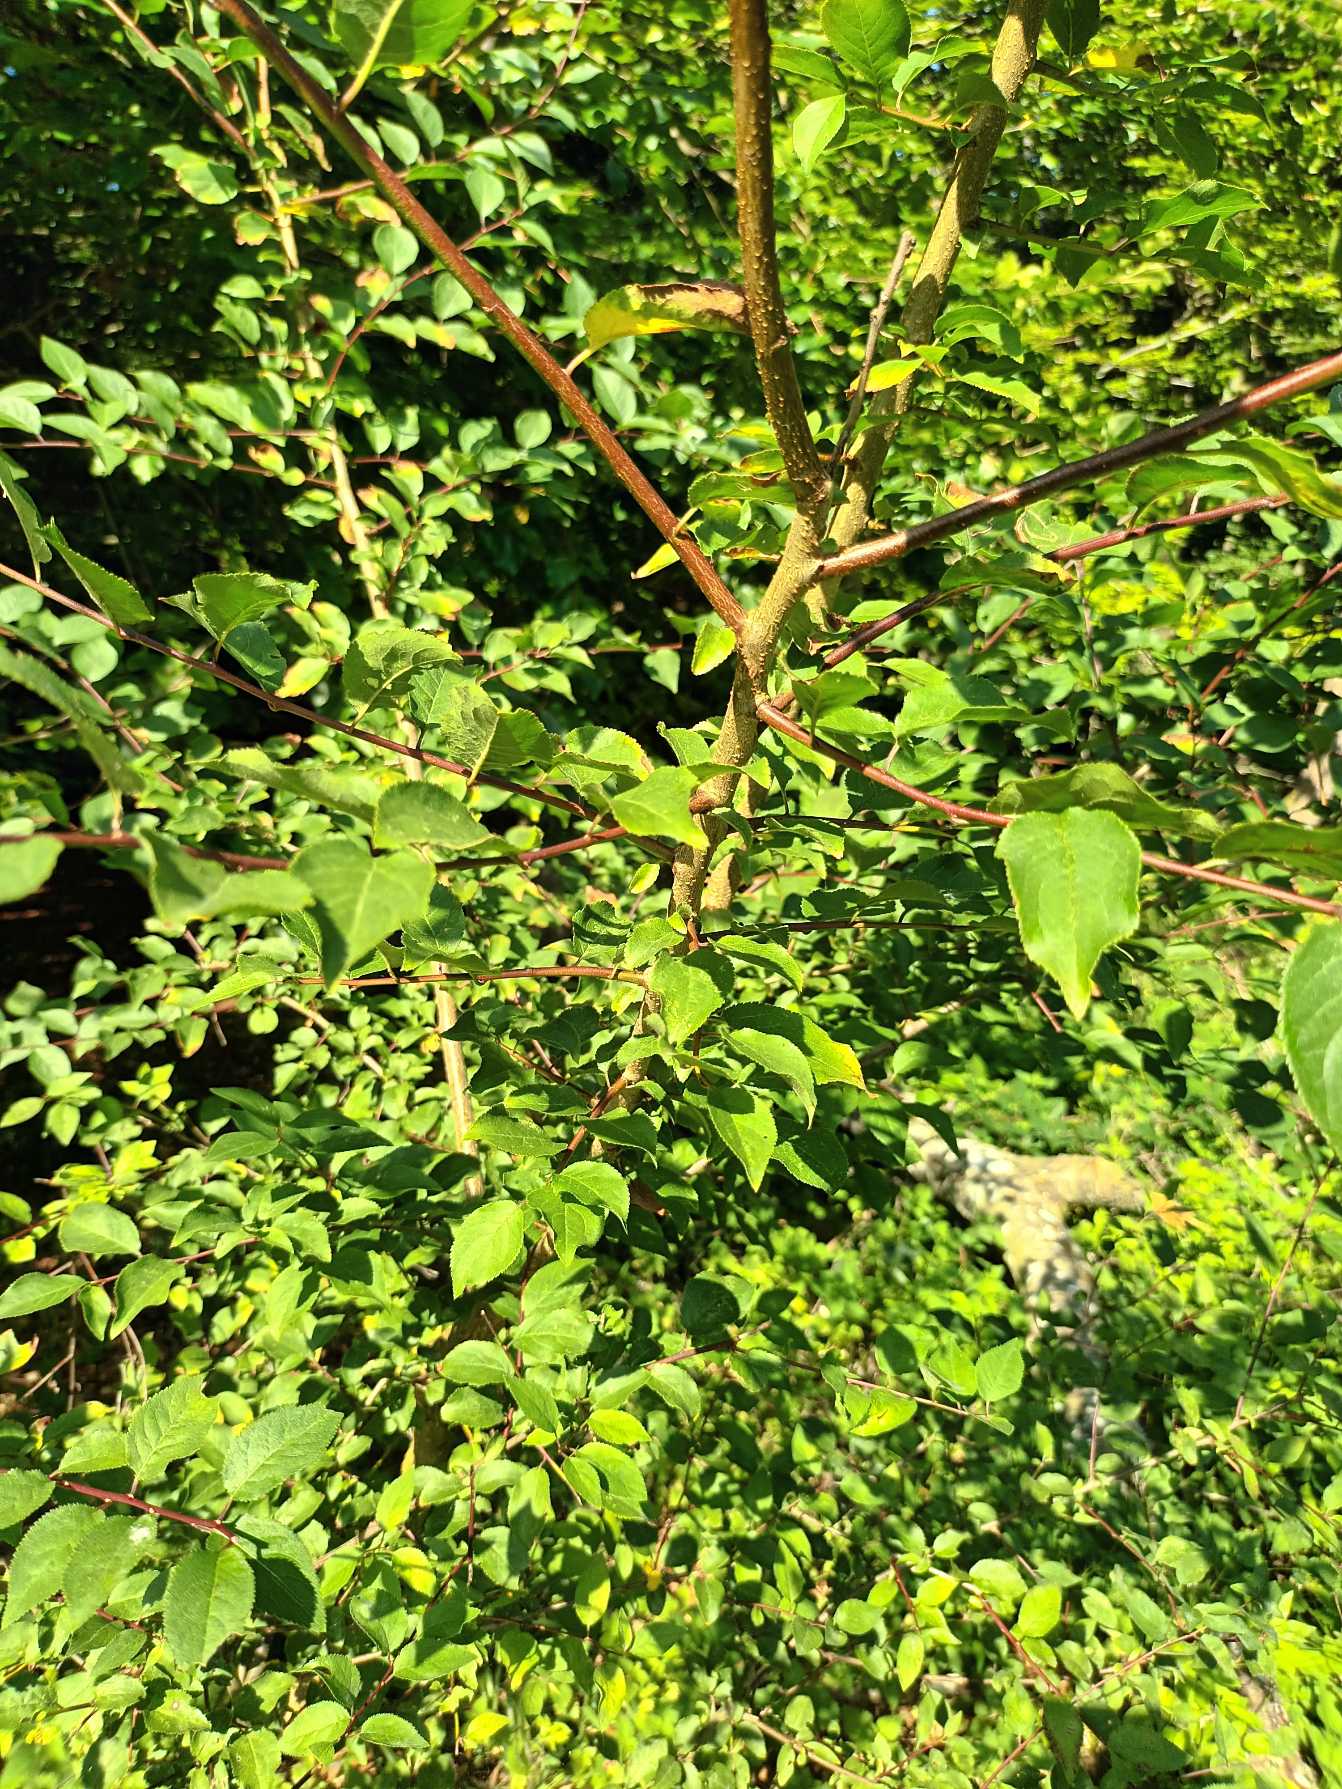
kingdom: Plantae
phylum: Tracheophyta
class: Magnoliopsida
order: Rosales
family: Rosaceae
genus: Prunus
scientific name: Prunus cerasifera
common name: Mirabel
